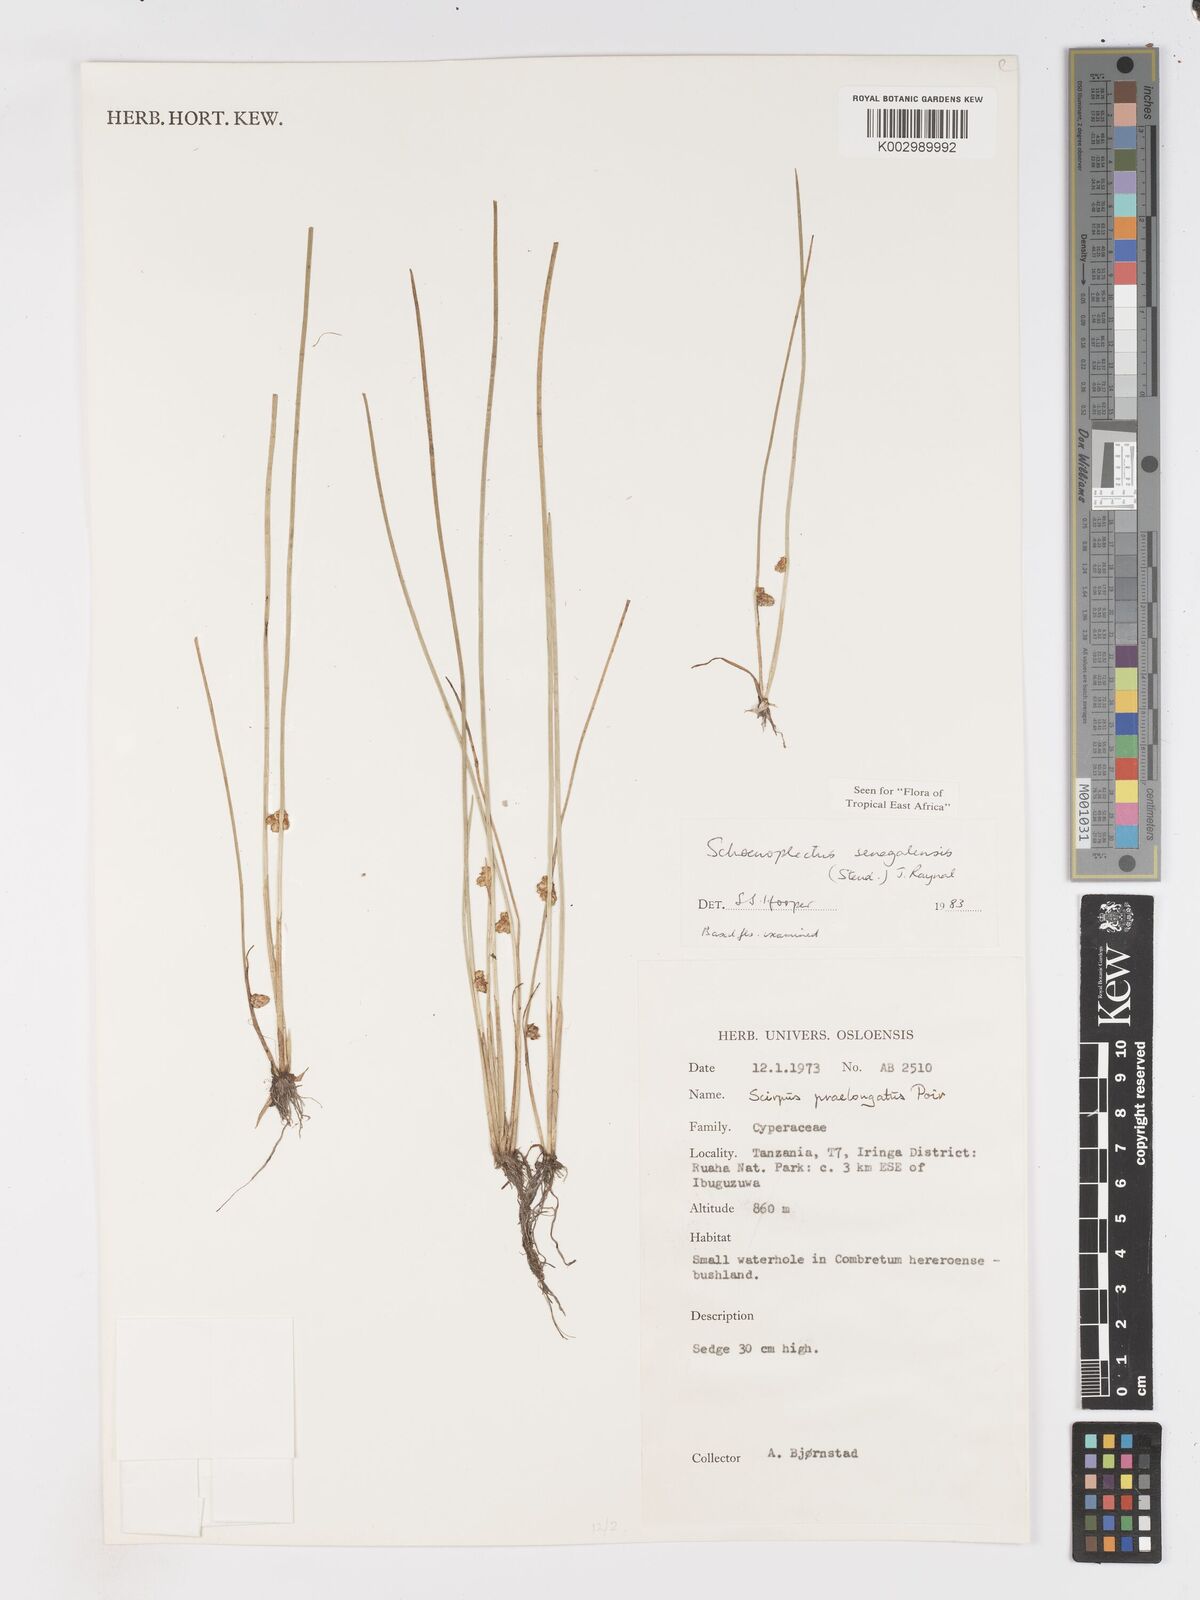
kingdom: Plantae
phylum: Tracheophyta
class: Liliopsida
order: Poales
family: Cyperaceae
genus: Schoenoplectiella
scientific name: Schoenoplectiella senegalensis
